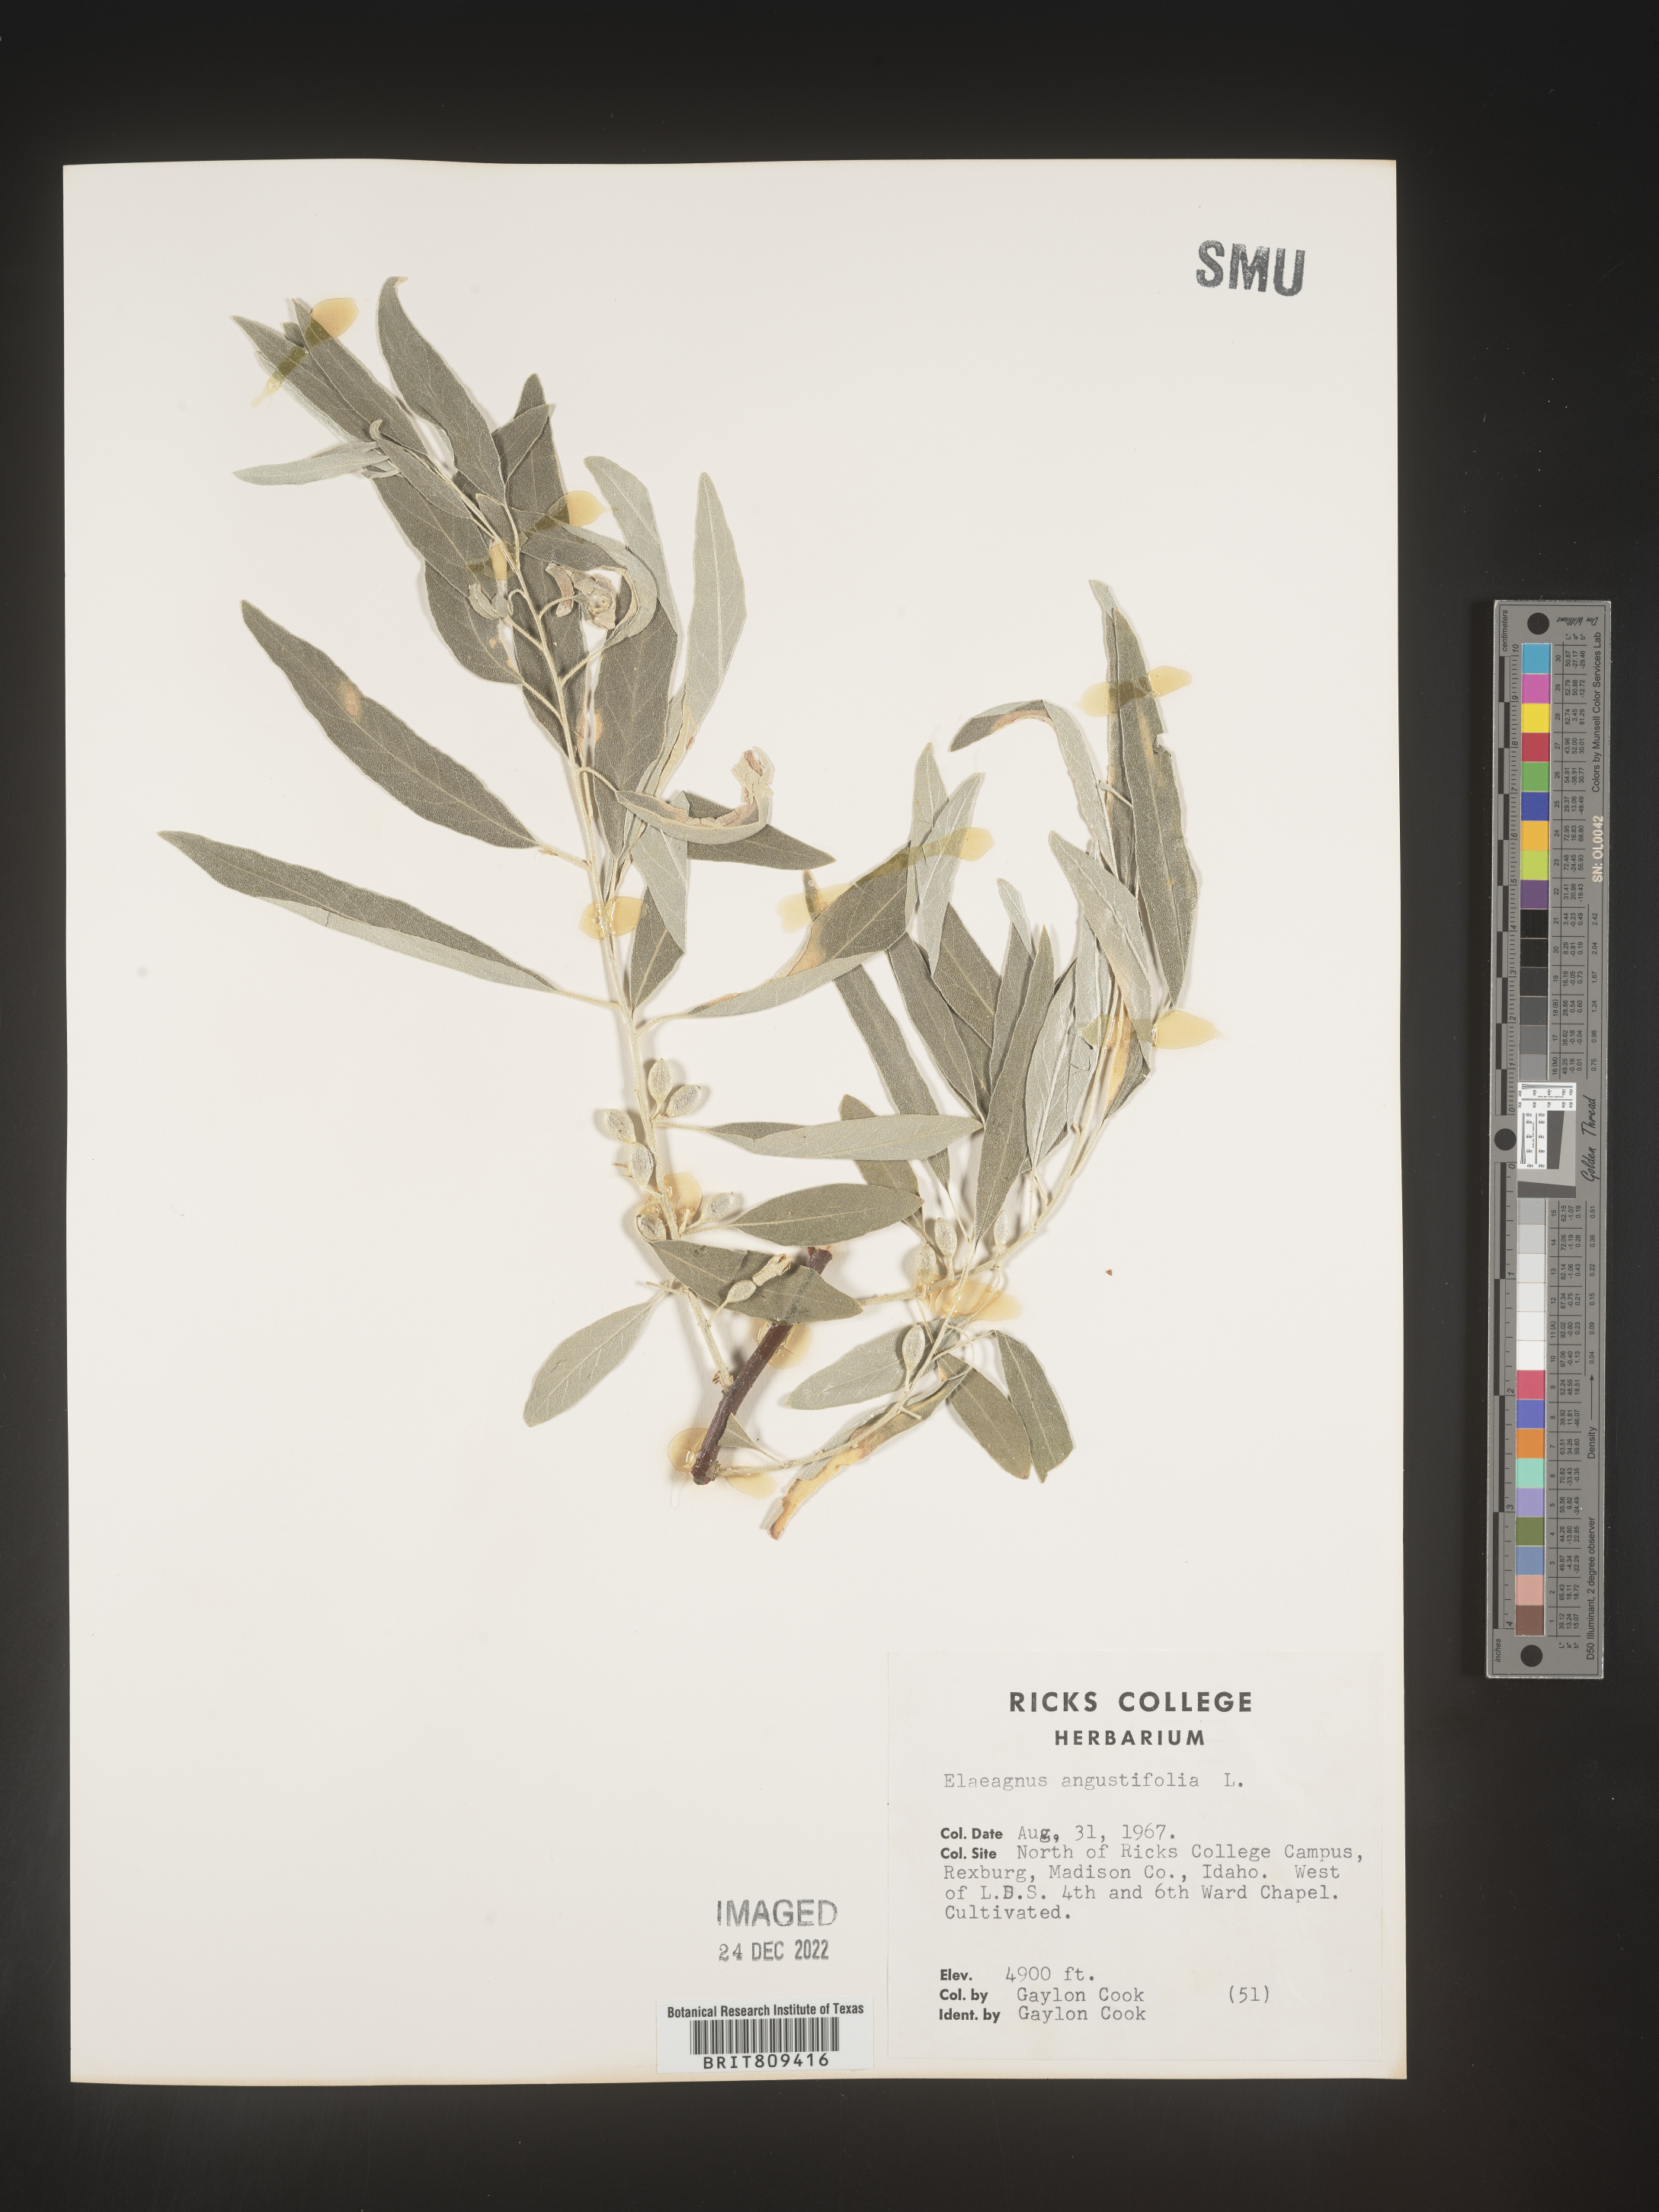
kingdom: Plantae
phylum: Tracheophyta
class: Magnoliopsida
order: Rosales
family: Elaeagnaceae
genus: Elaeagnus
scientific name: Elaeagnus
